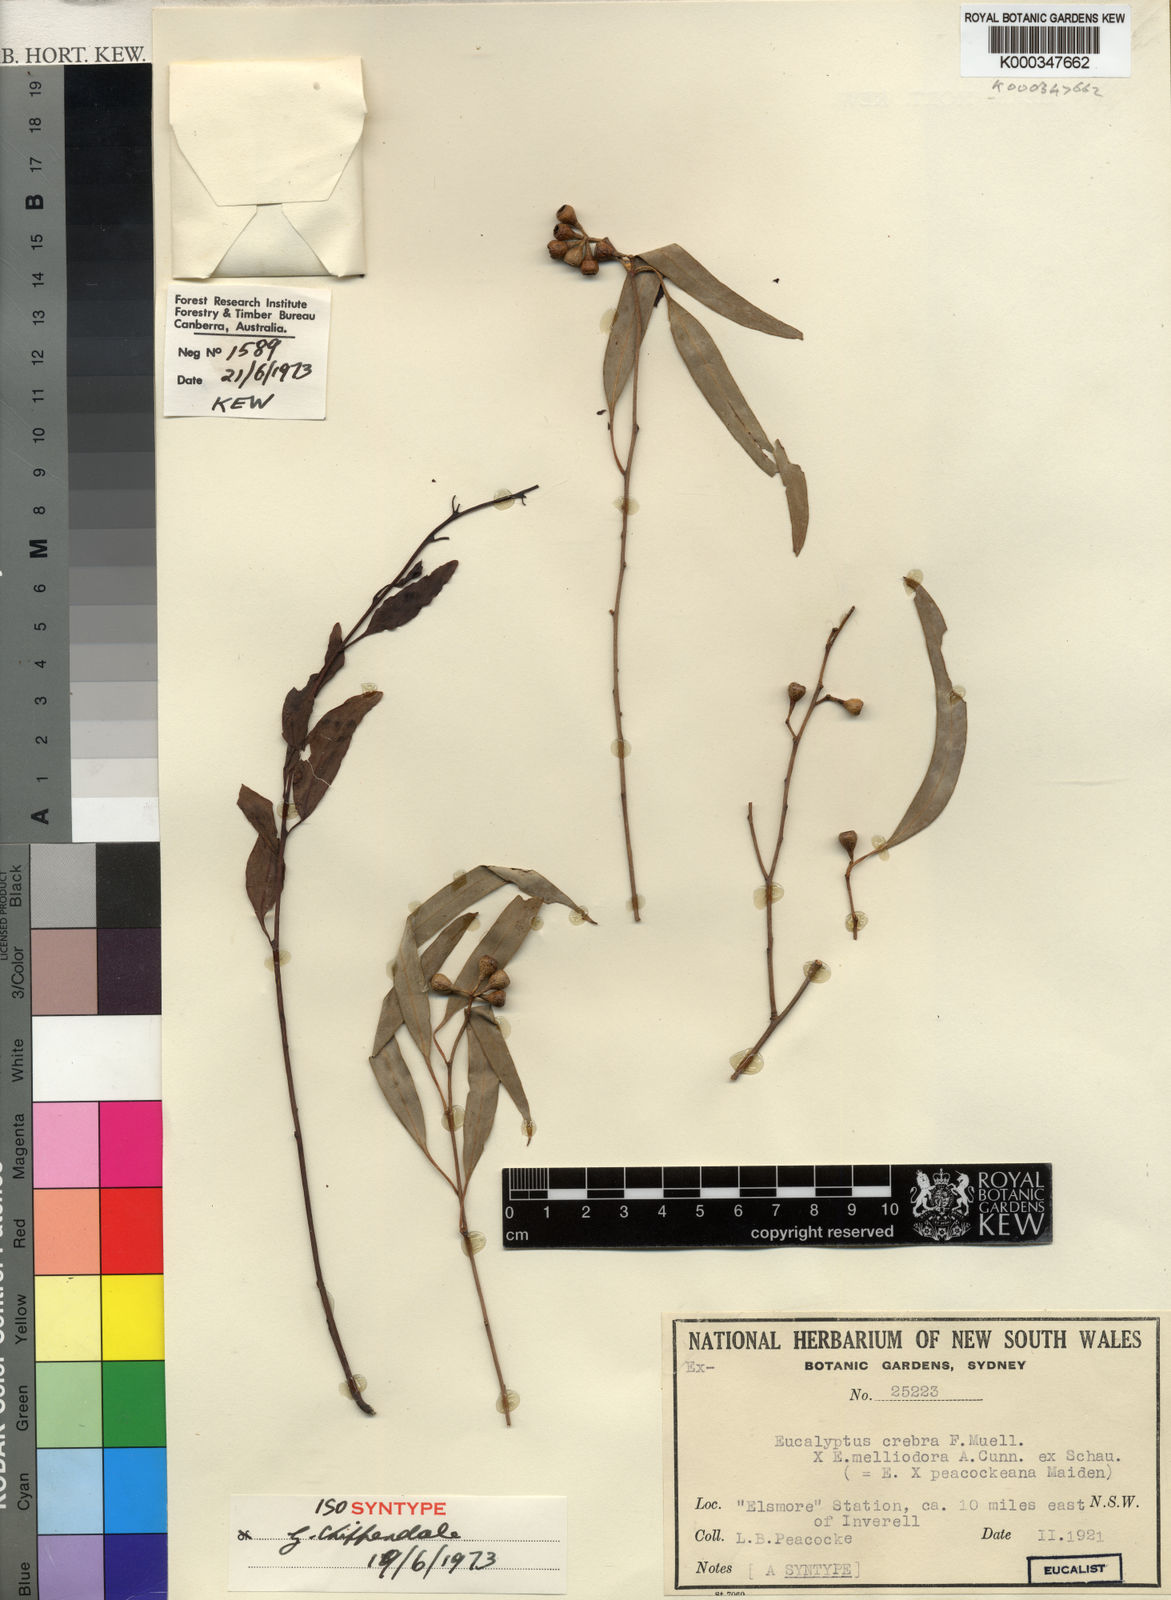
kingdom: Plantae
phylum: Tracheophyta
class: Magnoliopsida
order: Myrtales
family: Myrtaceae
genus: Eucalyptus
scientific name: Eucalyptus peacockeana
